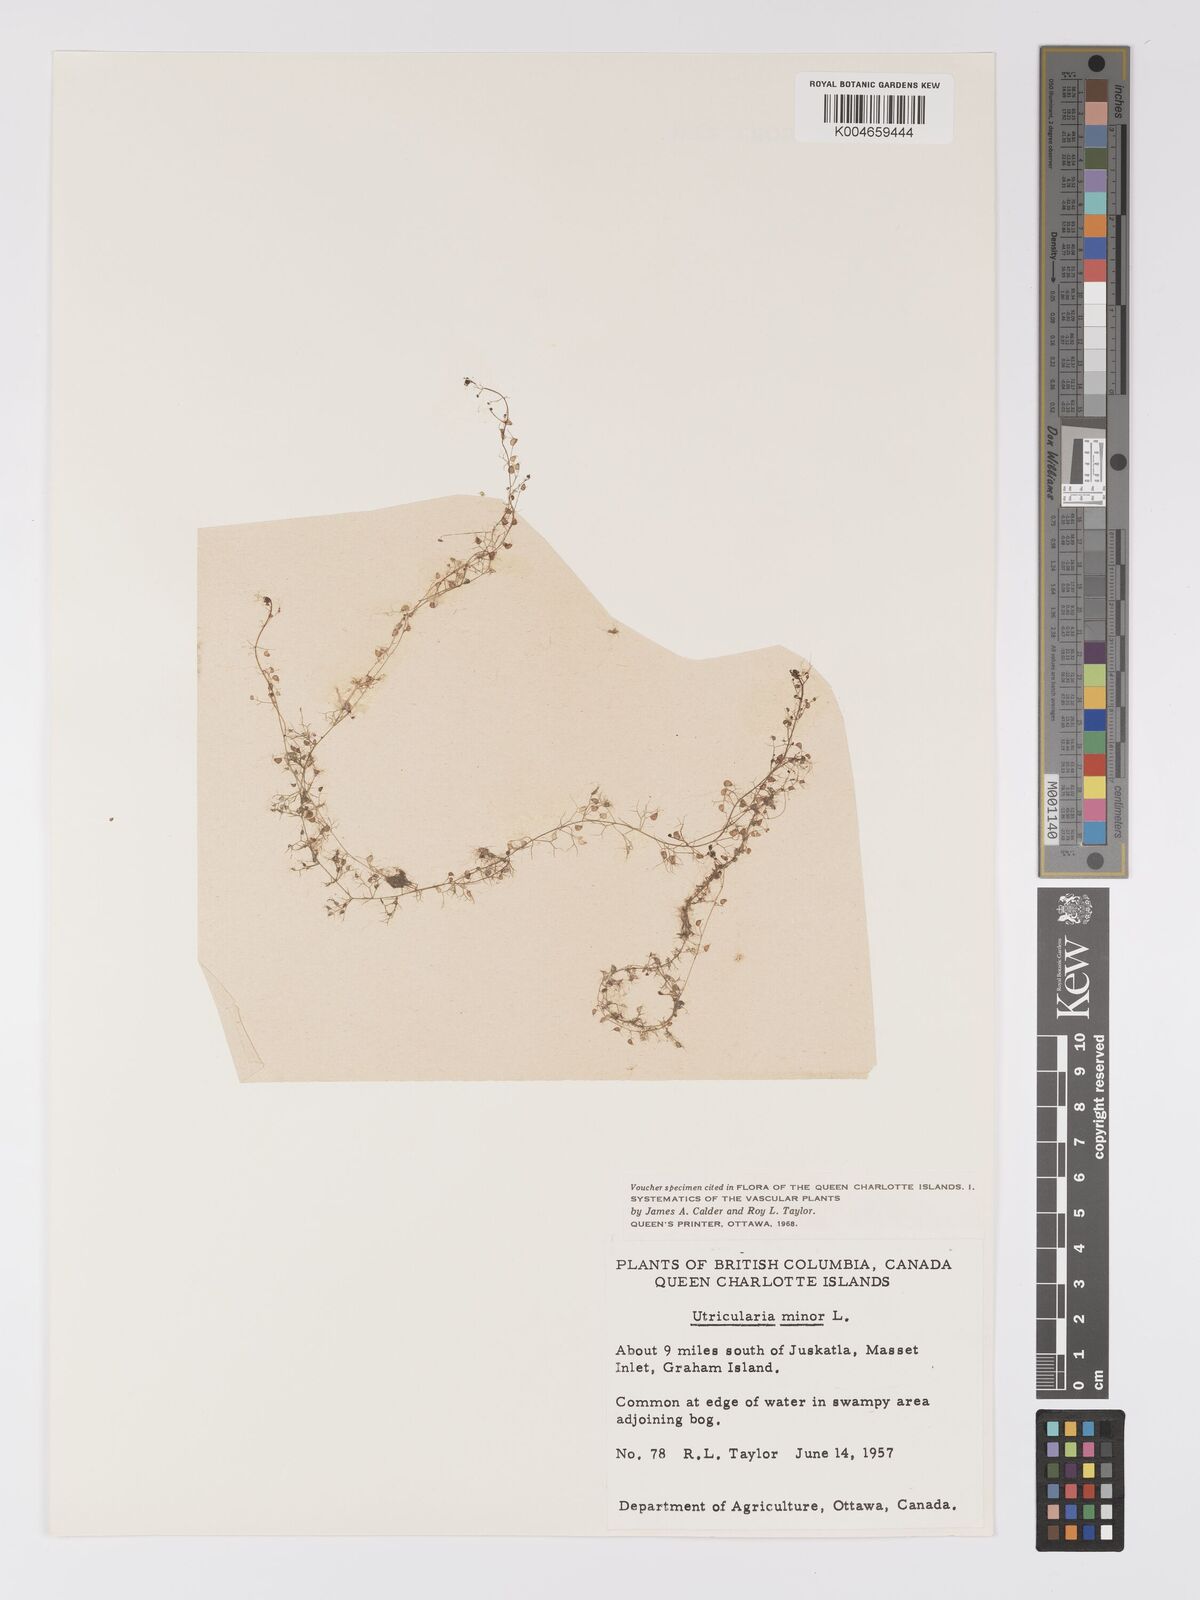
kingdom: Plantae
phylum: Tracheophyta
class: Magnoliopsida
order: Lamiales
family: Lentibulariaceae
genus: Utricularia
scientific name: Utricularia minor
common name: Lesser bladderwort
